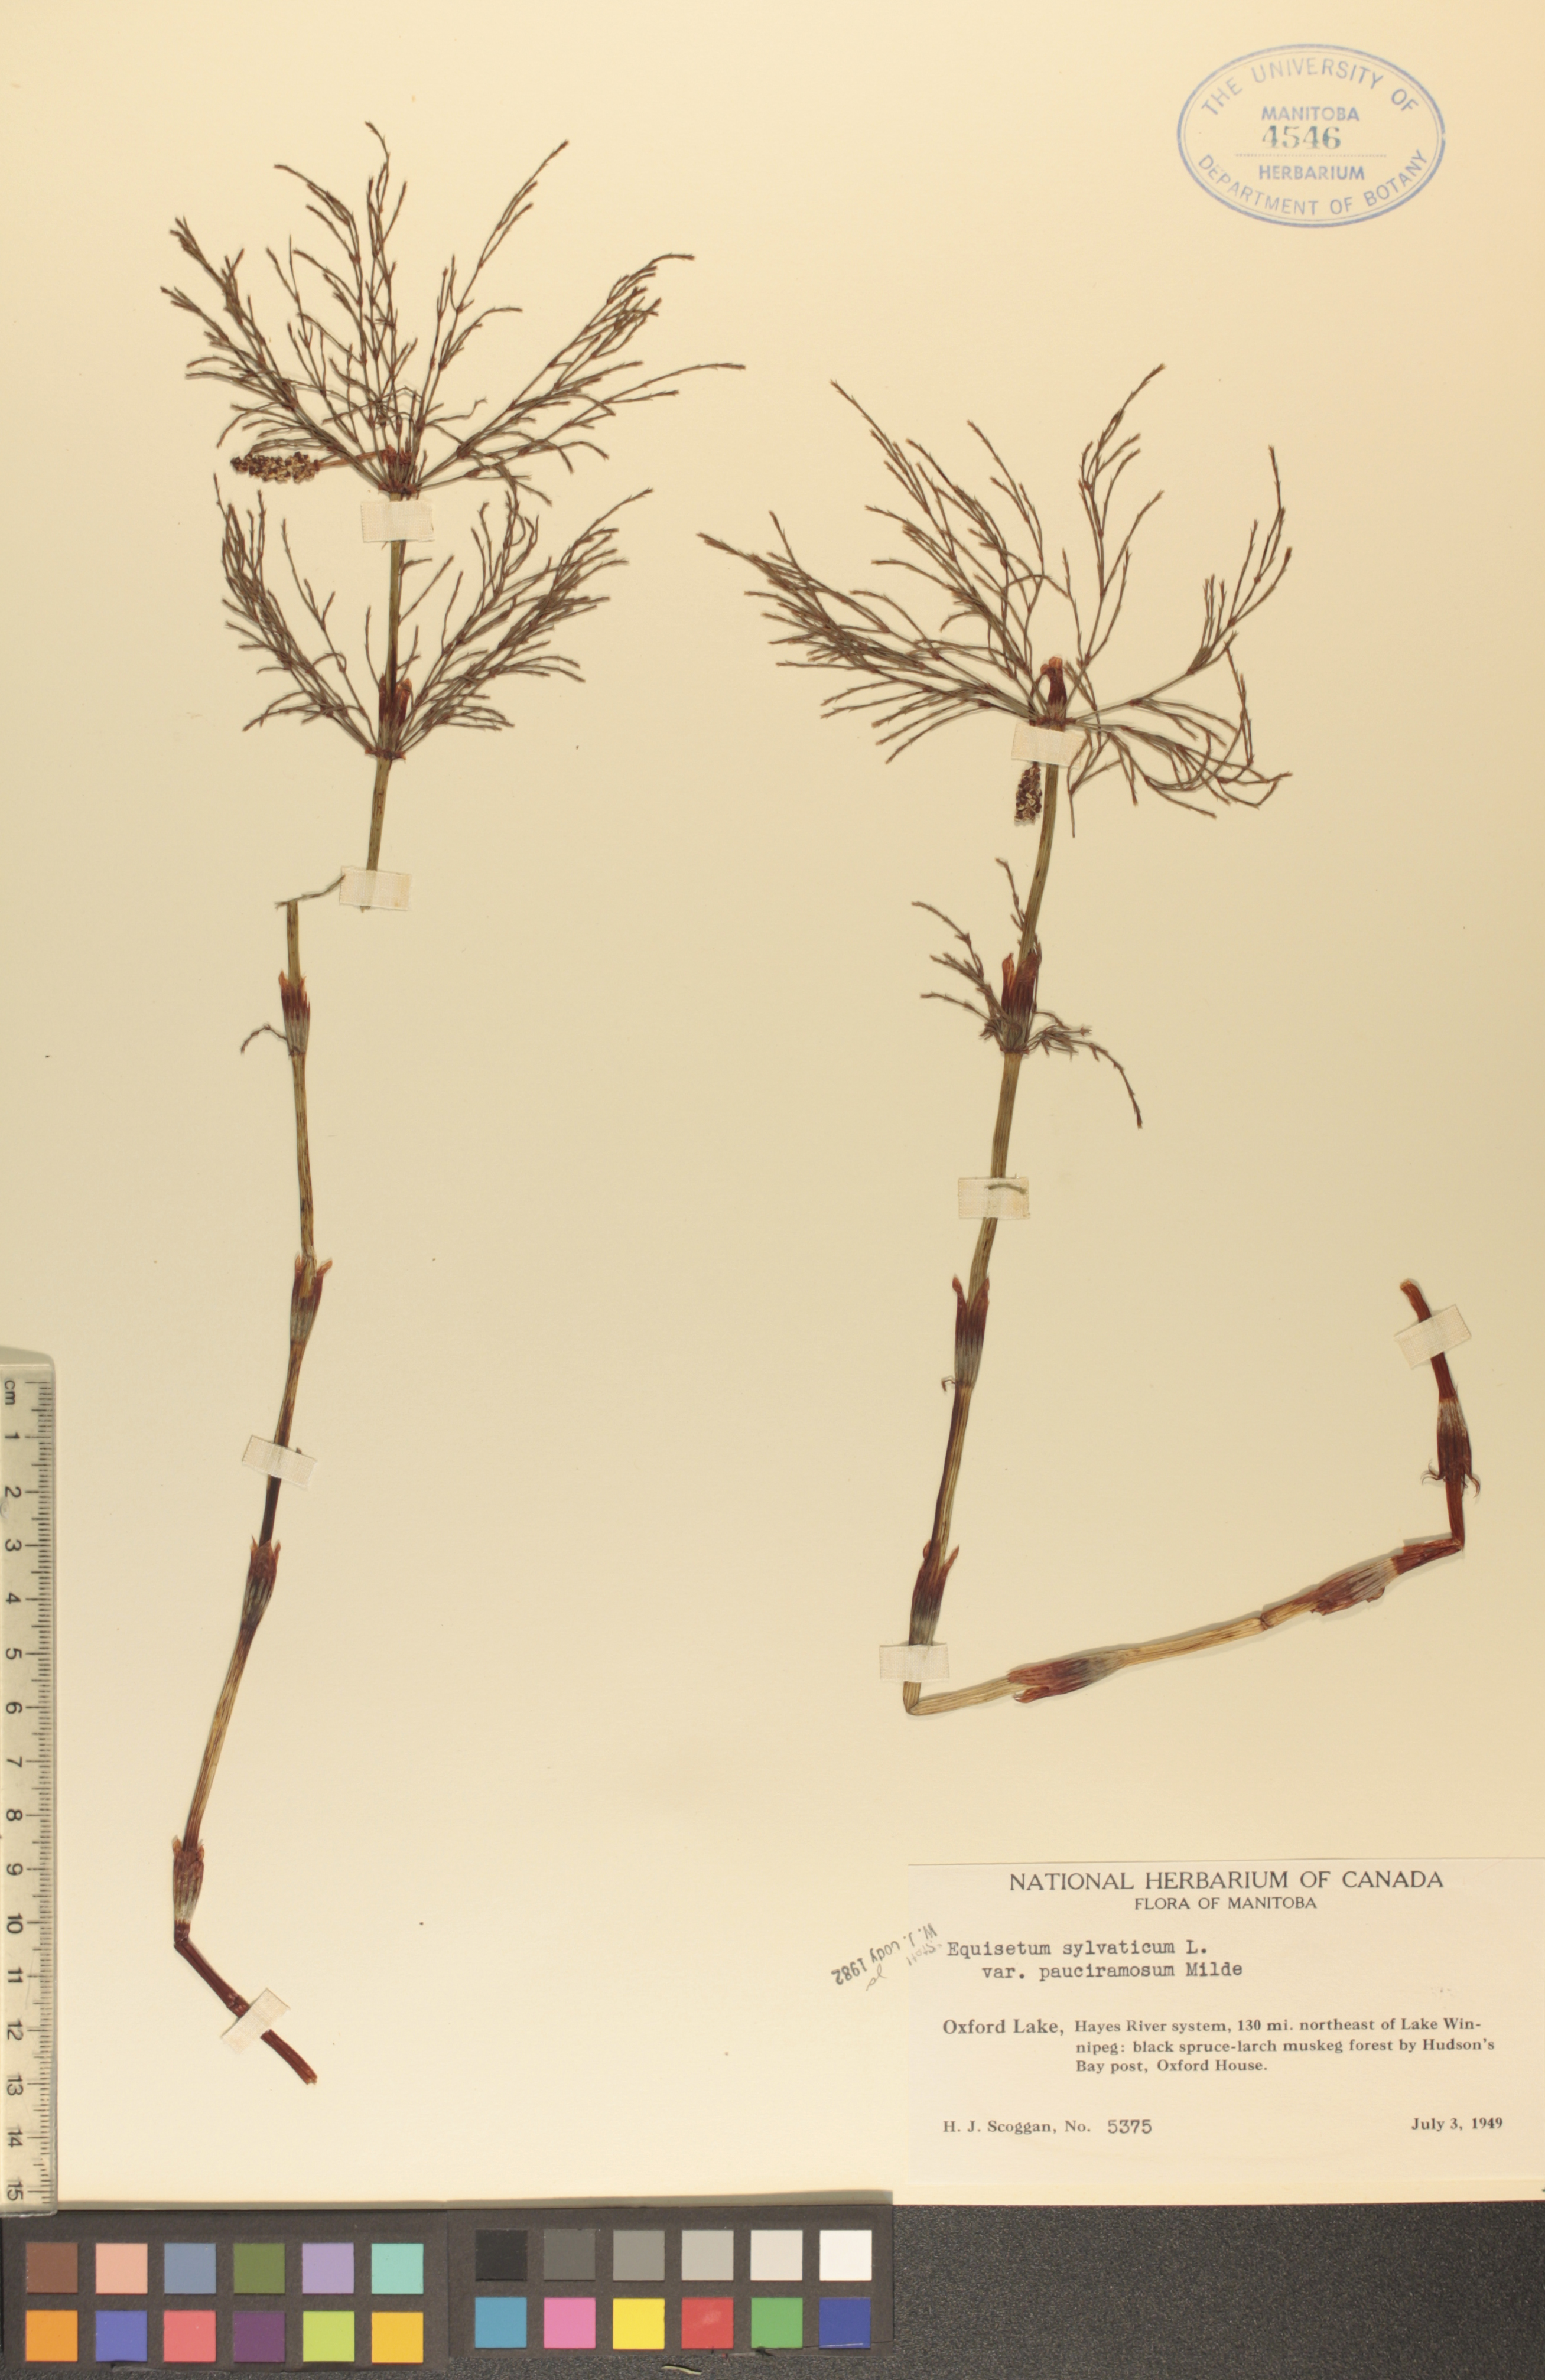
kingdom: Plantae
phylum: Tracheophyta
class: Polypodiopsida
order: Equisetales
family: Equisetaceae
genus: Equisetum
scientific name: Equisetum sylvaticum
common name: Wood horsetail
